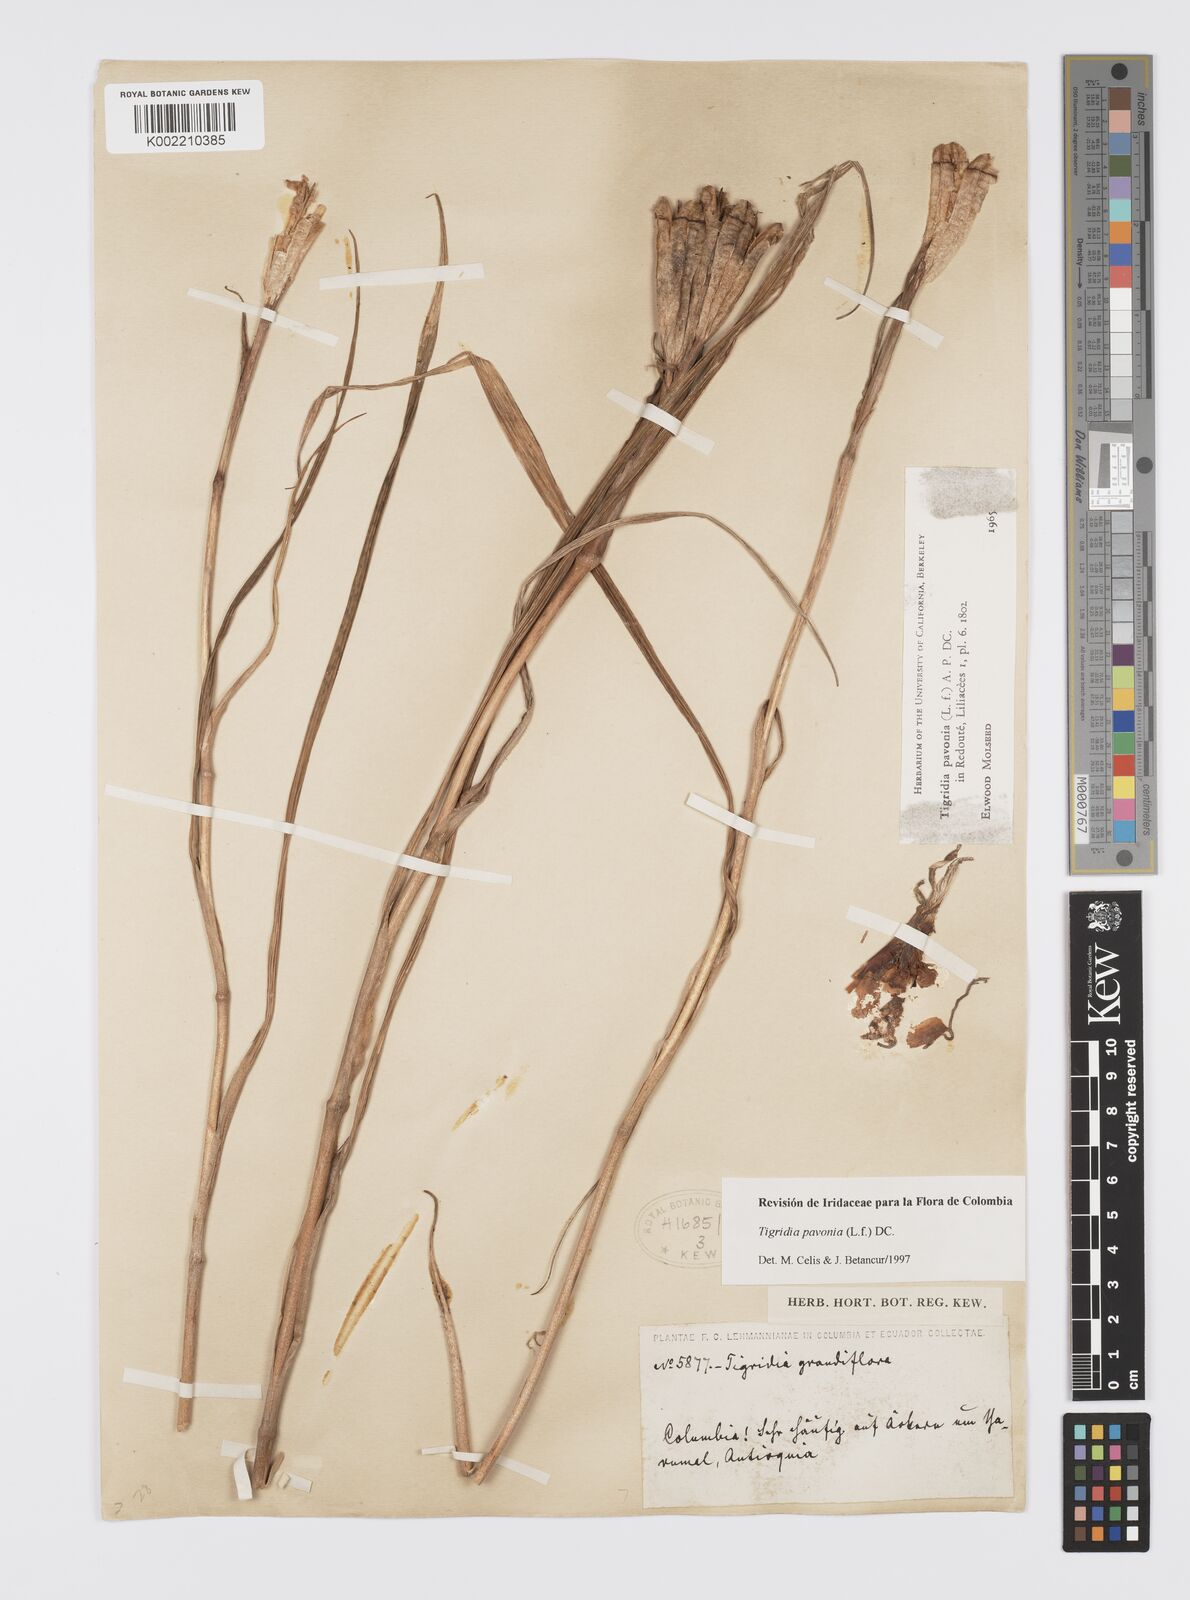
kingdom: Plantae
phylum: Tracheophyta
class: Liliopsida
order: Asparagales
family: Iridaceae
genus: Tigridia
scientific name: Tigridia pavonia
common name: Peacock-flower
